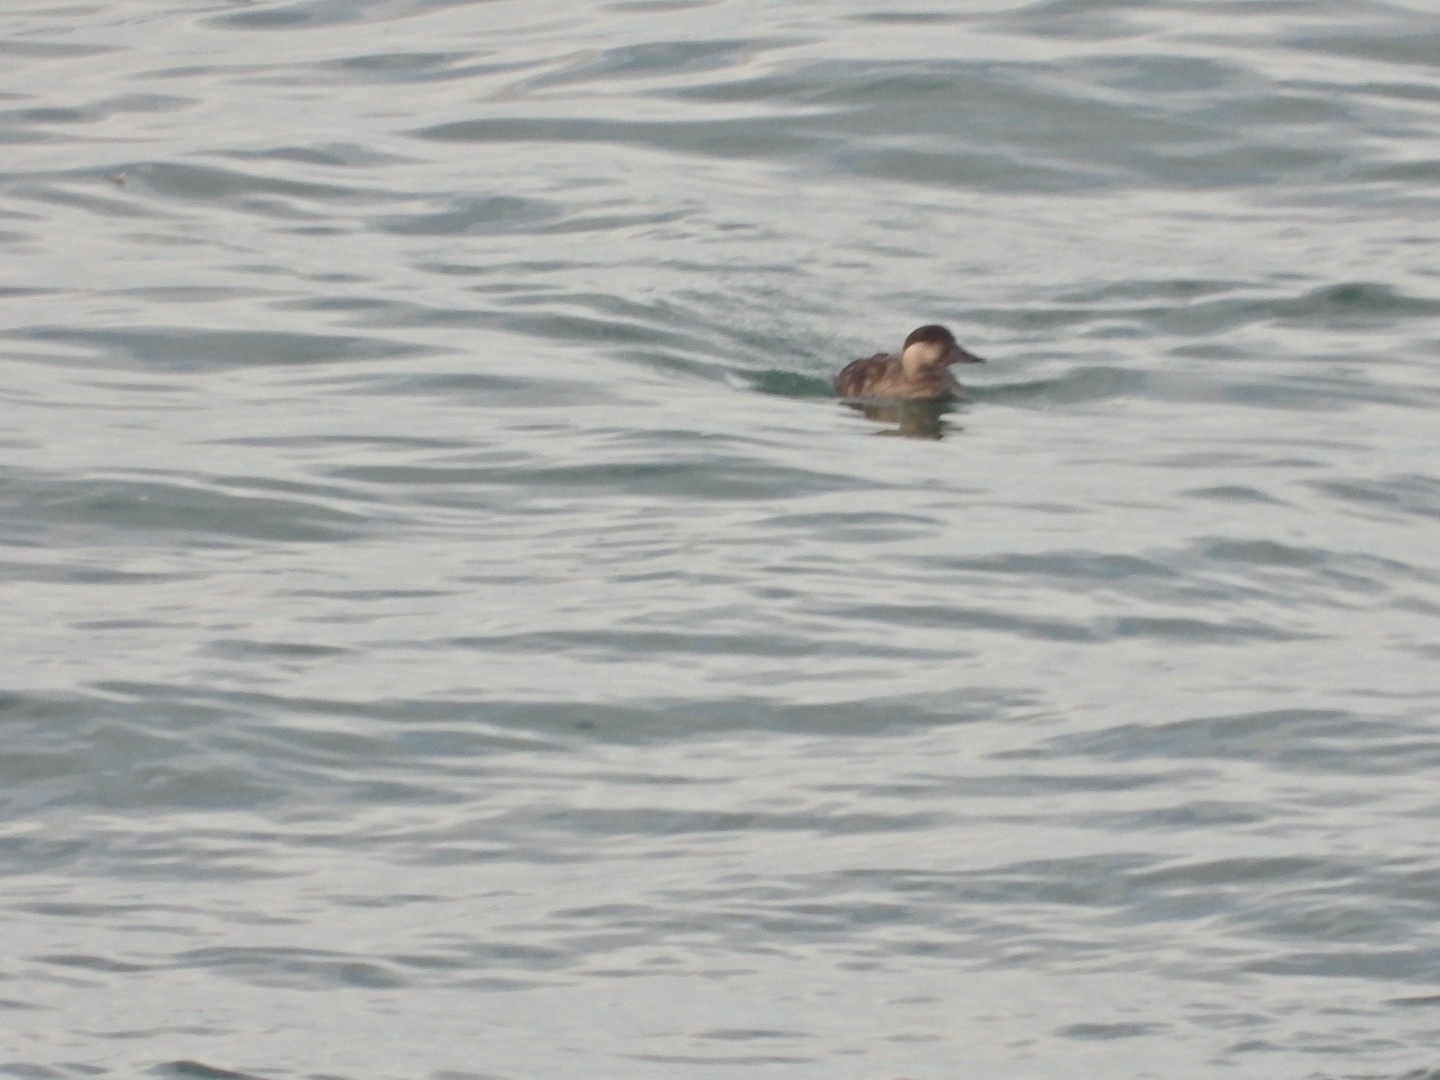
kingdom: Animalia
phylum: Chordata
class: Aves
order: Anseriformes
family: Anatidae
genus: Melanitta
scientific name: Melanitta nigra
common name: Sortand
